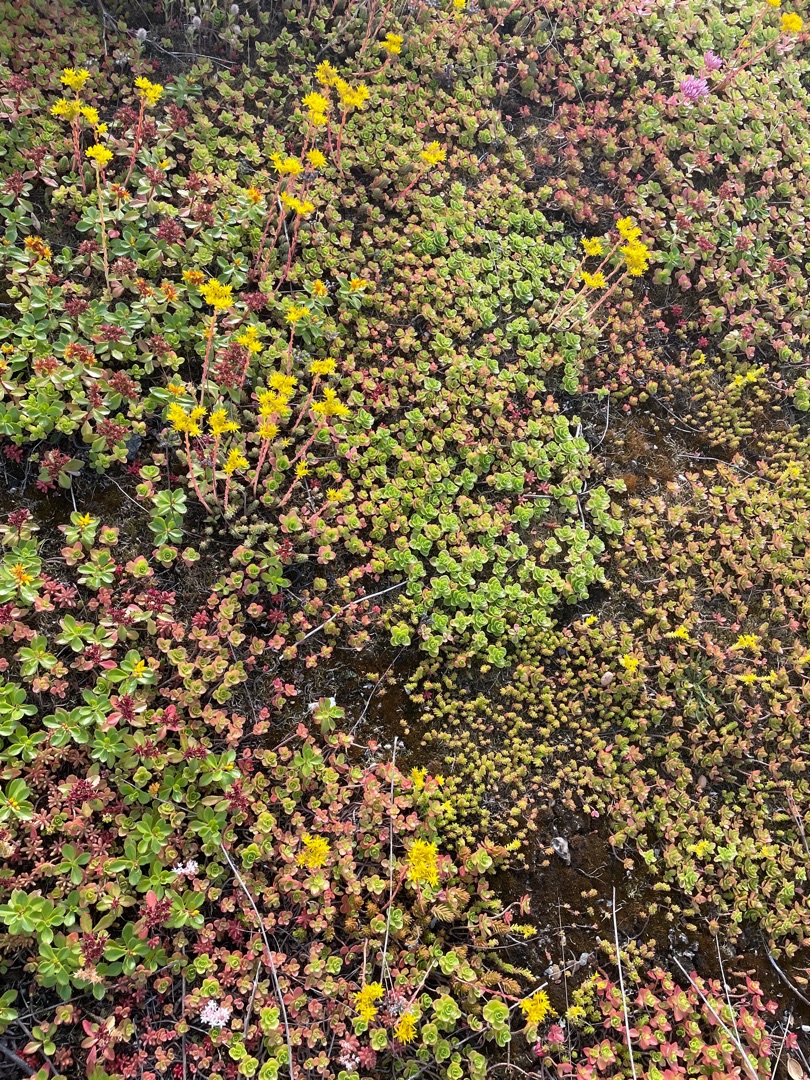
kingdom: Plantae
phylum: Tracheophyta
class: Magnoliopsida
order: Saxifragales
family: Crassulaceae
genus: Phedimus
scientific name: Phedimus spurius
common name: Rød stenurt
